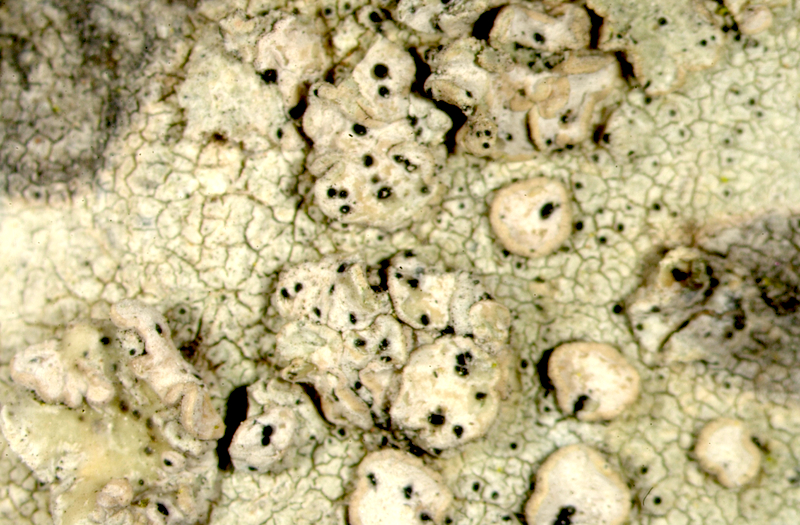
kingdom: Fungi
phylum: Ascomycota
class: Lecanoromycetes
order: Lecanorales
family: Mycoblastaceae
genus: Tephromela
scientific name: Tephromela
